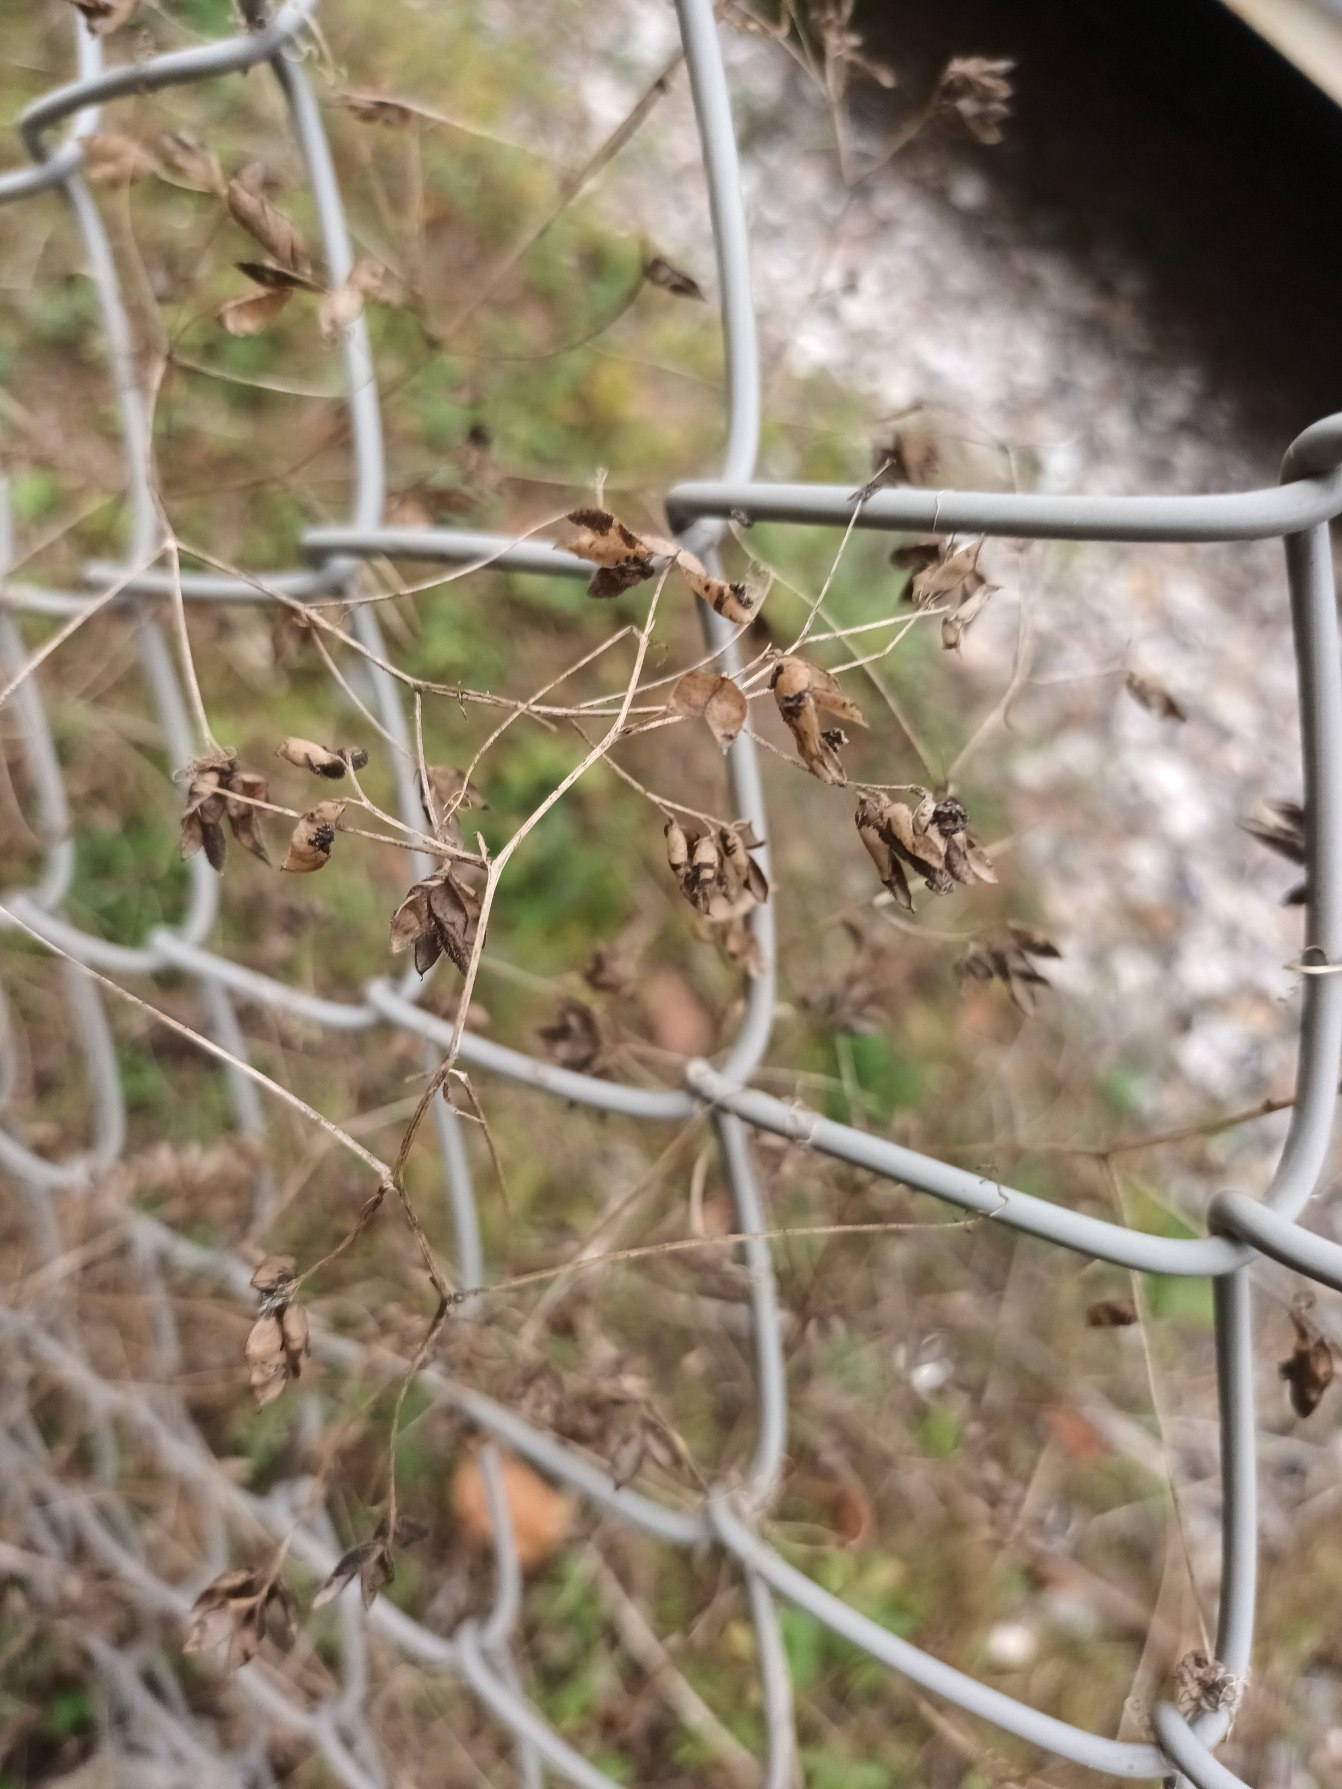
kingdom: Plantae
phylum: Tracheophyta
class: Magnoliopsida
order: Fabales
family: Fabaceae
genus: Vicia
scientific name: Vicia hirsuta
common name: Tofrøet vikke
